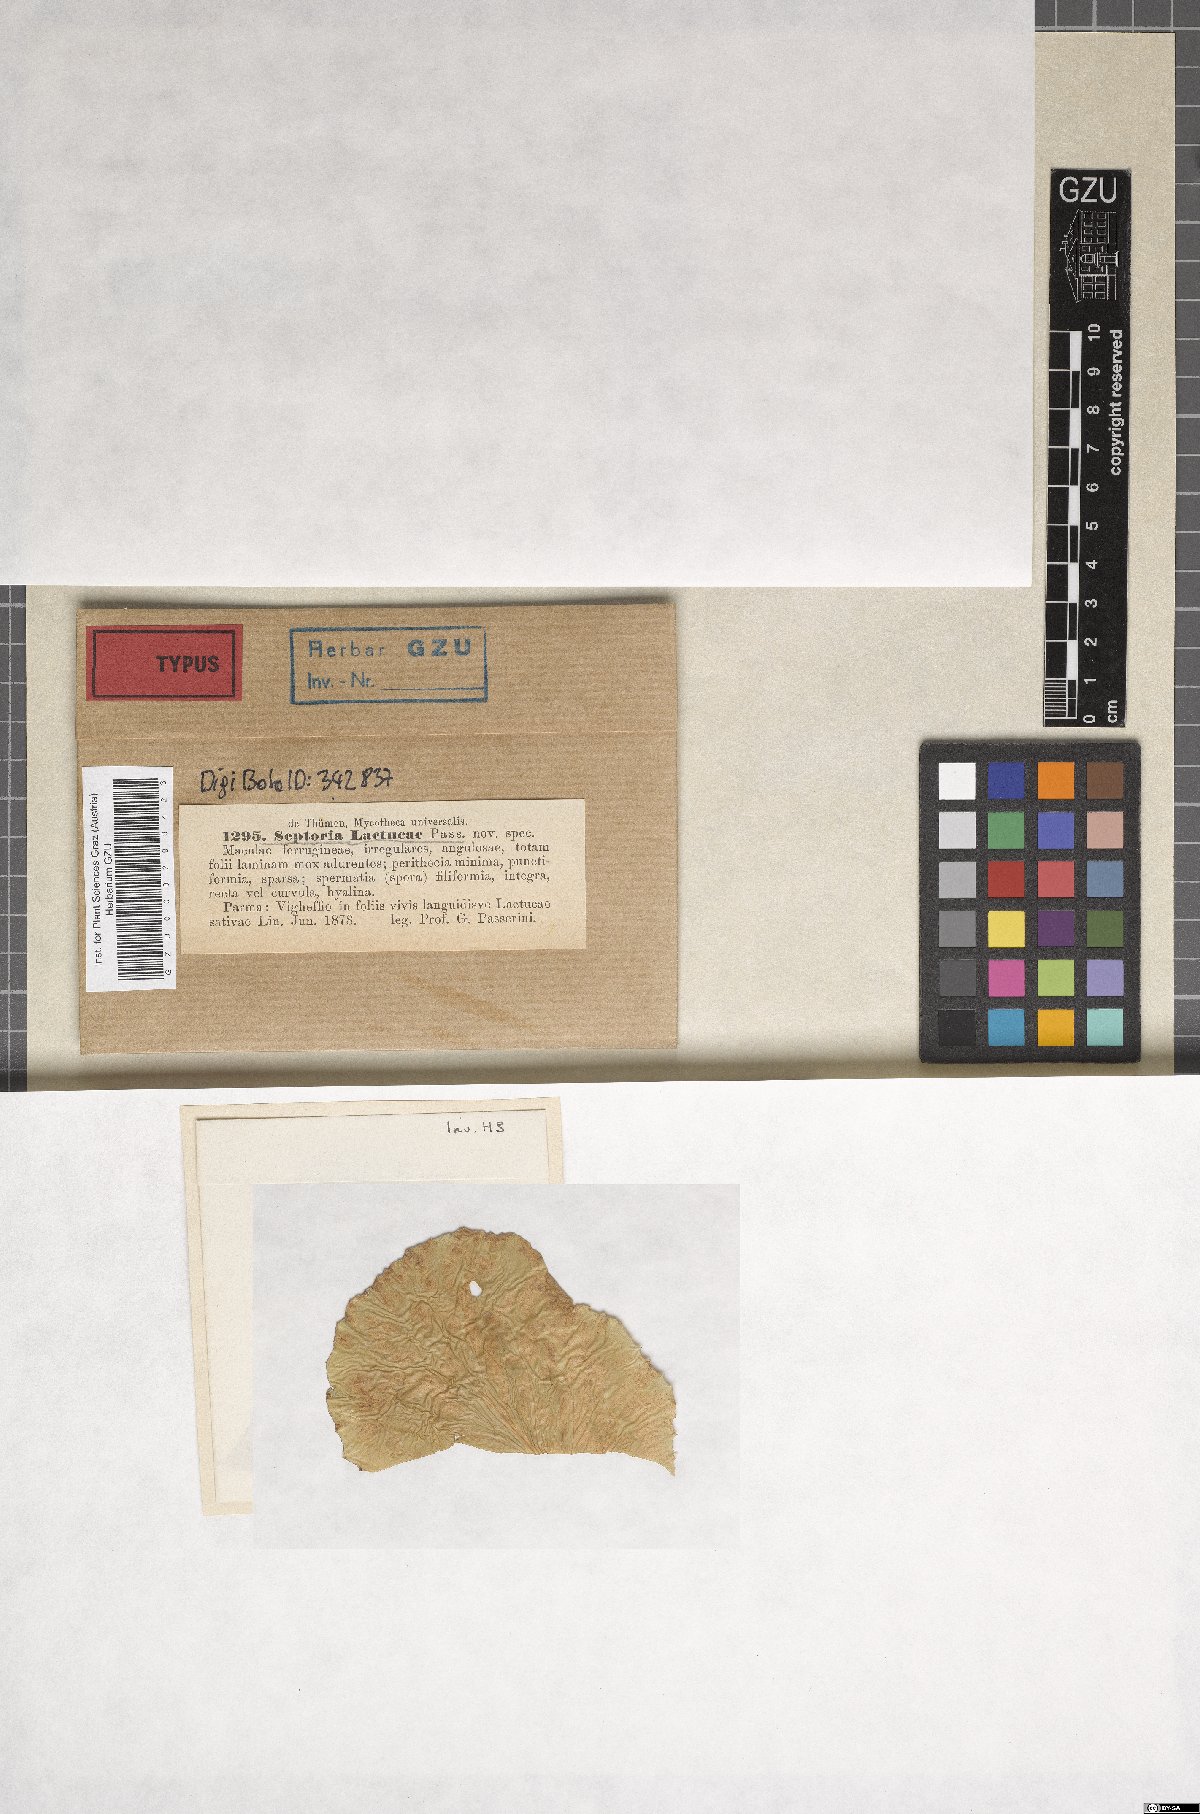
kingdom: Fungi
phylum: Ascomycota
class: Dothideomycetes
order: Mycosphaerellales
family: Mycosphaerellaceae
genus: Septoria
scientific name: Septoria lactucae
